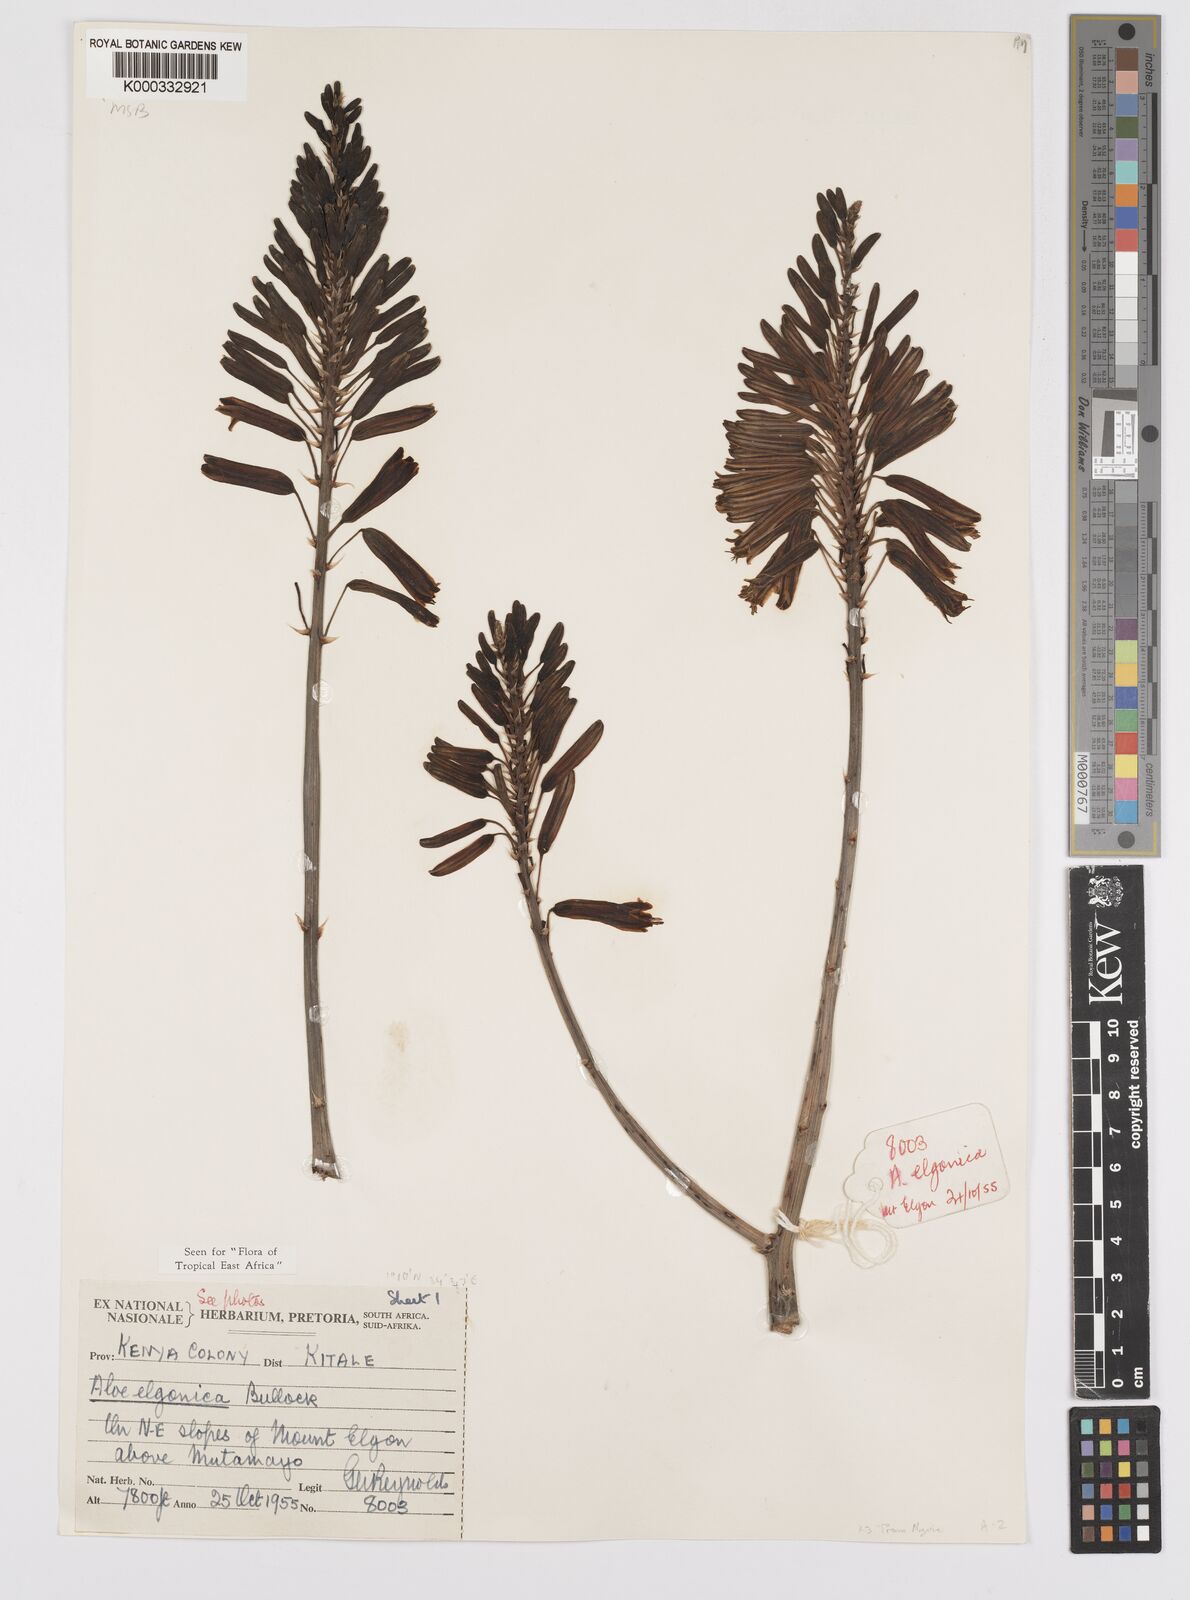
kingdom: Plantae
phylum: Tracheophyta
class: Liliopsida
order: Asparagales
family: Asphodelaceae
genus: Aloe
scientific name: Aloe elgonica
